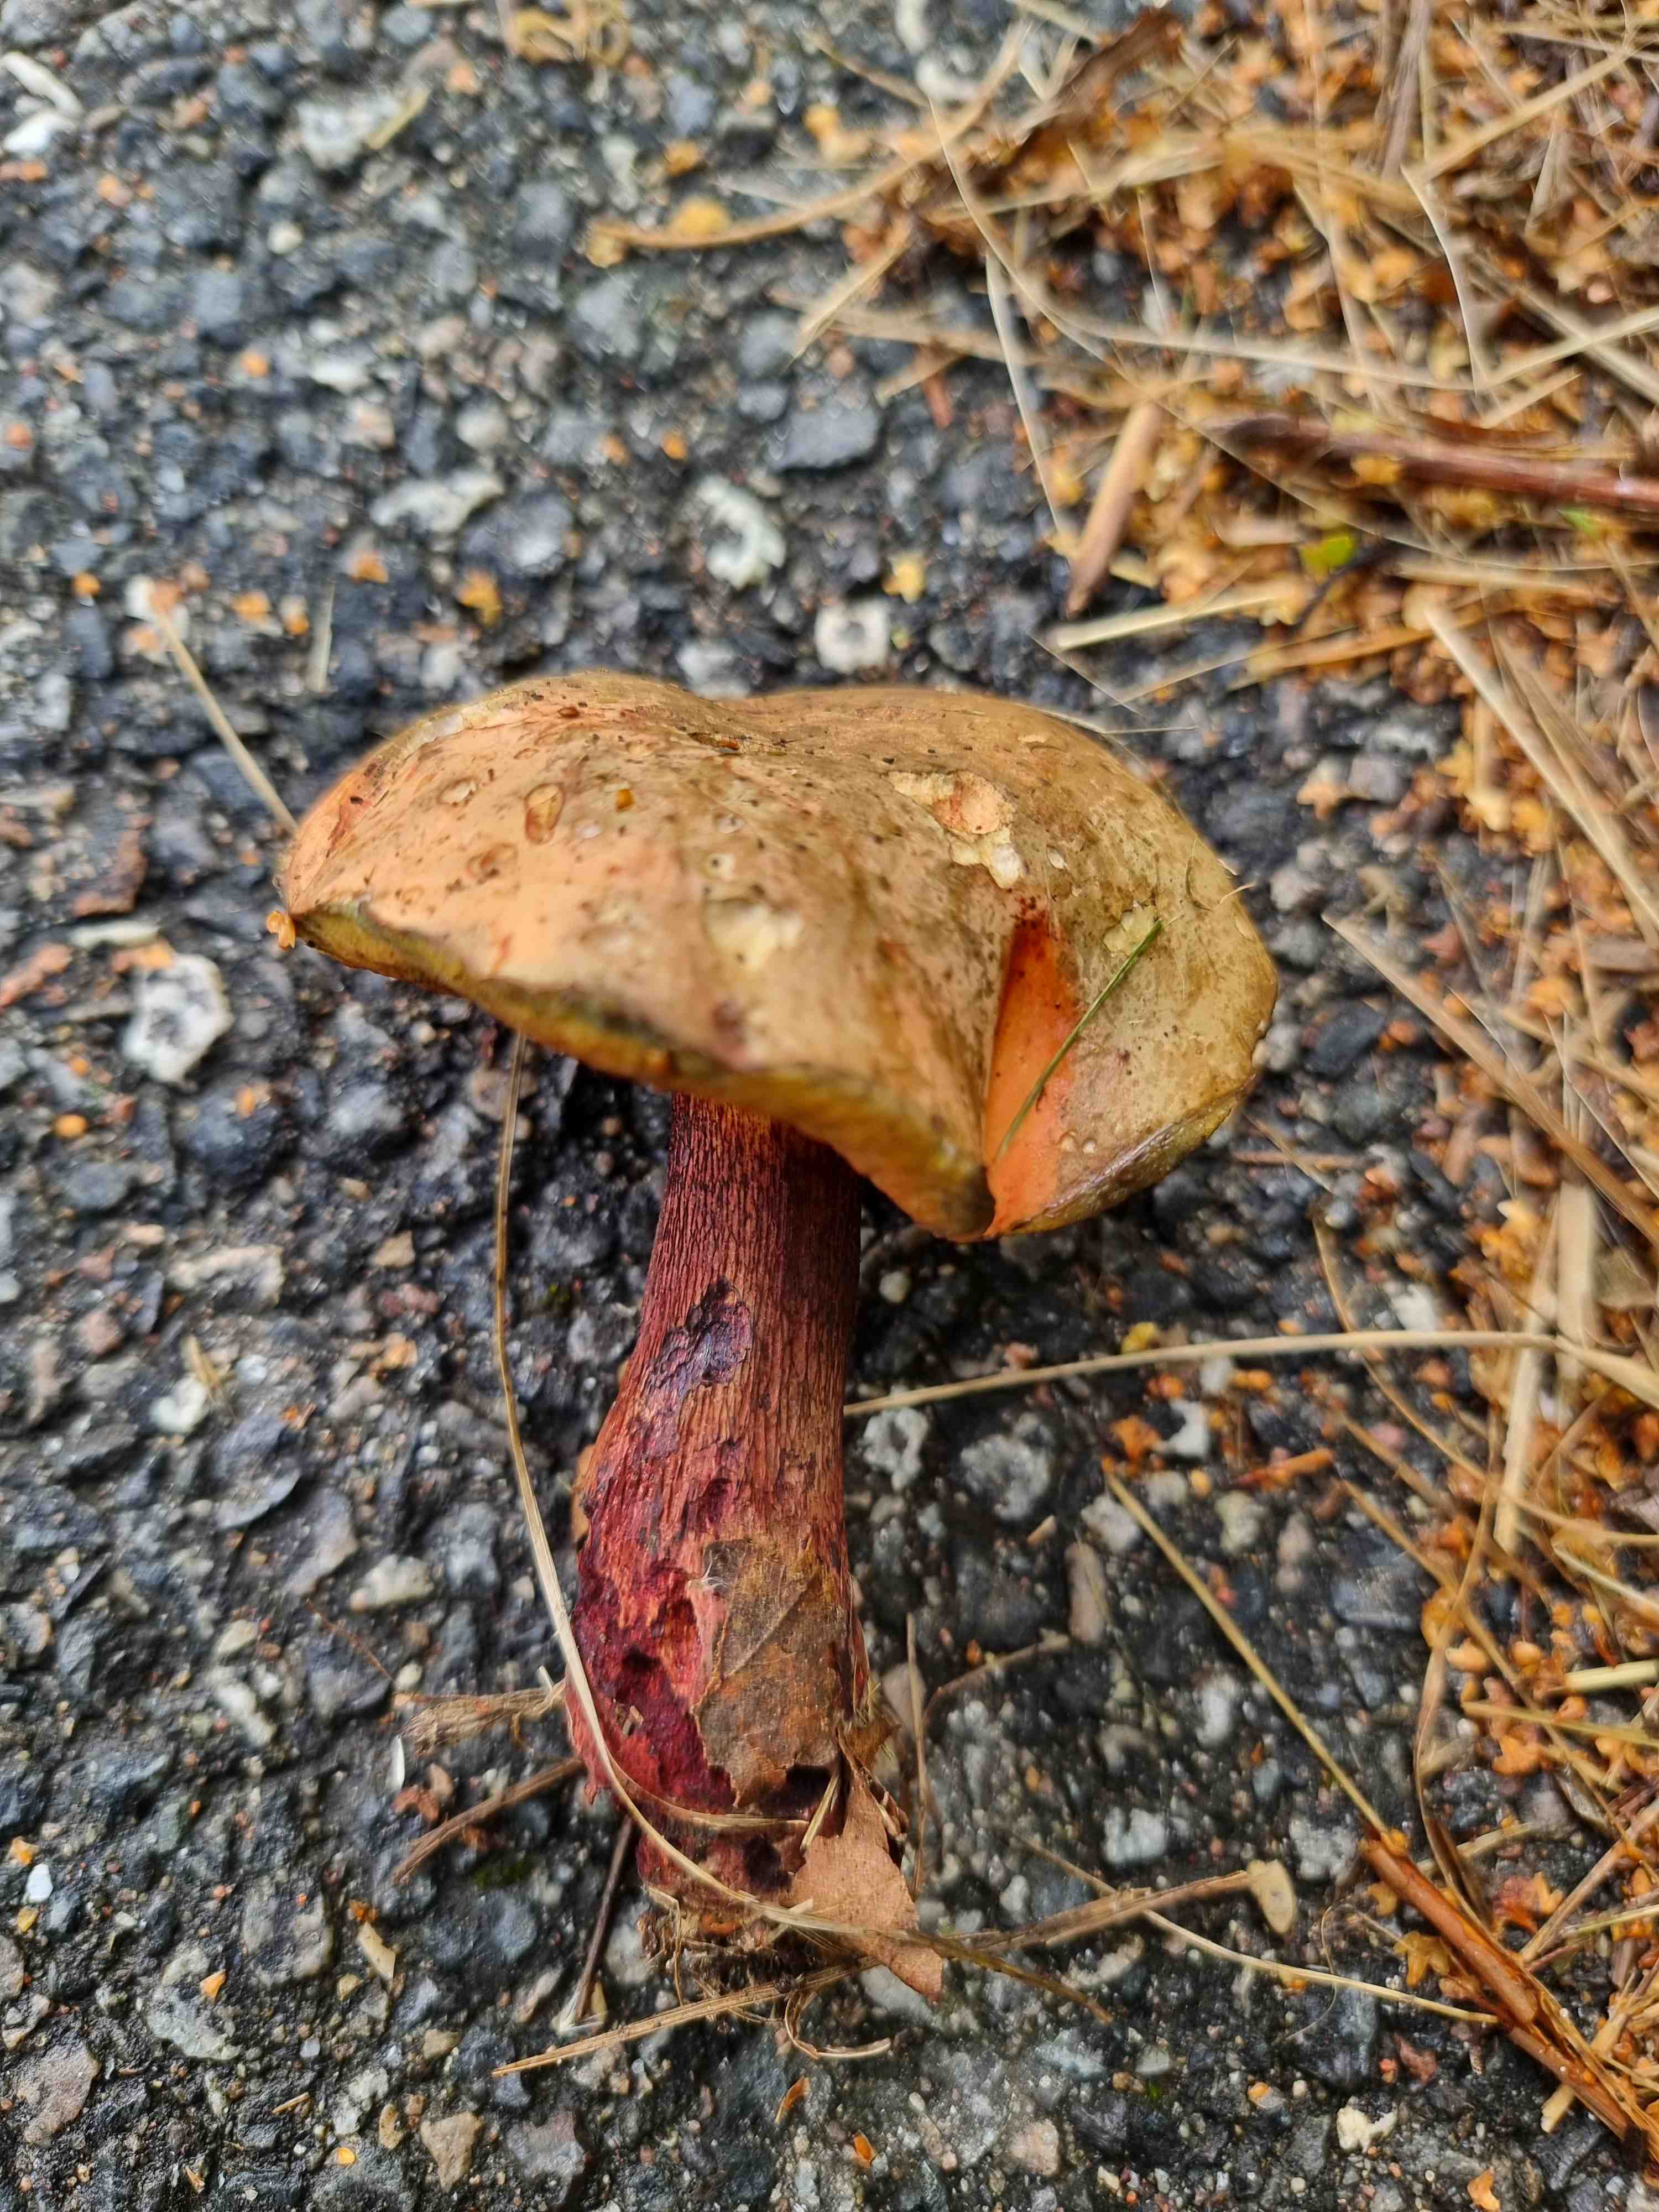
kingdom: Fungi
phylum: Basidiomycota
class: Agaricomycetes
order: Boletales
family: Boletaceae
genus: Suillellus
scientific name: Suillellus luridus
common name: netstokket indigorørhat
